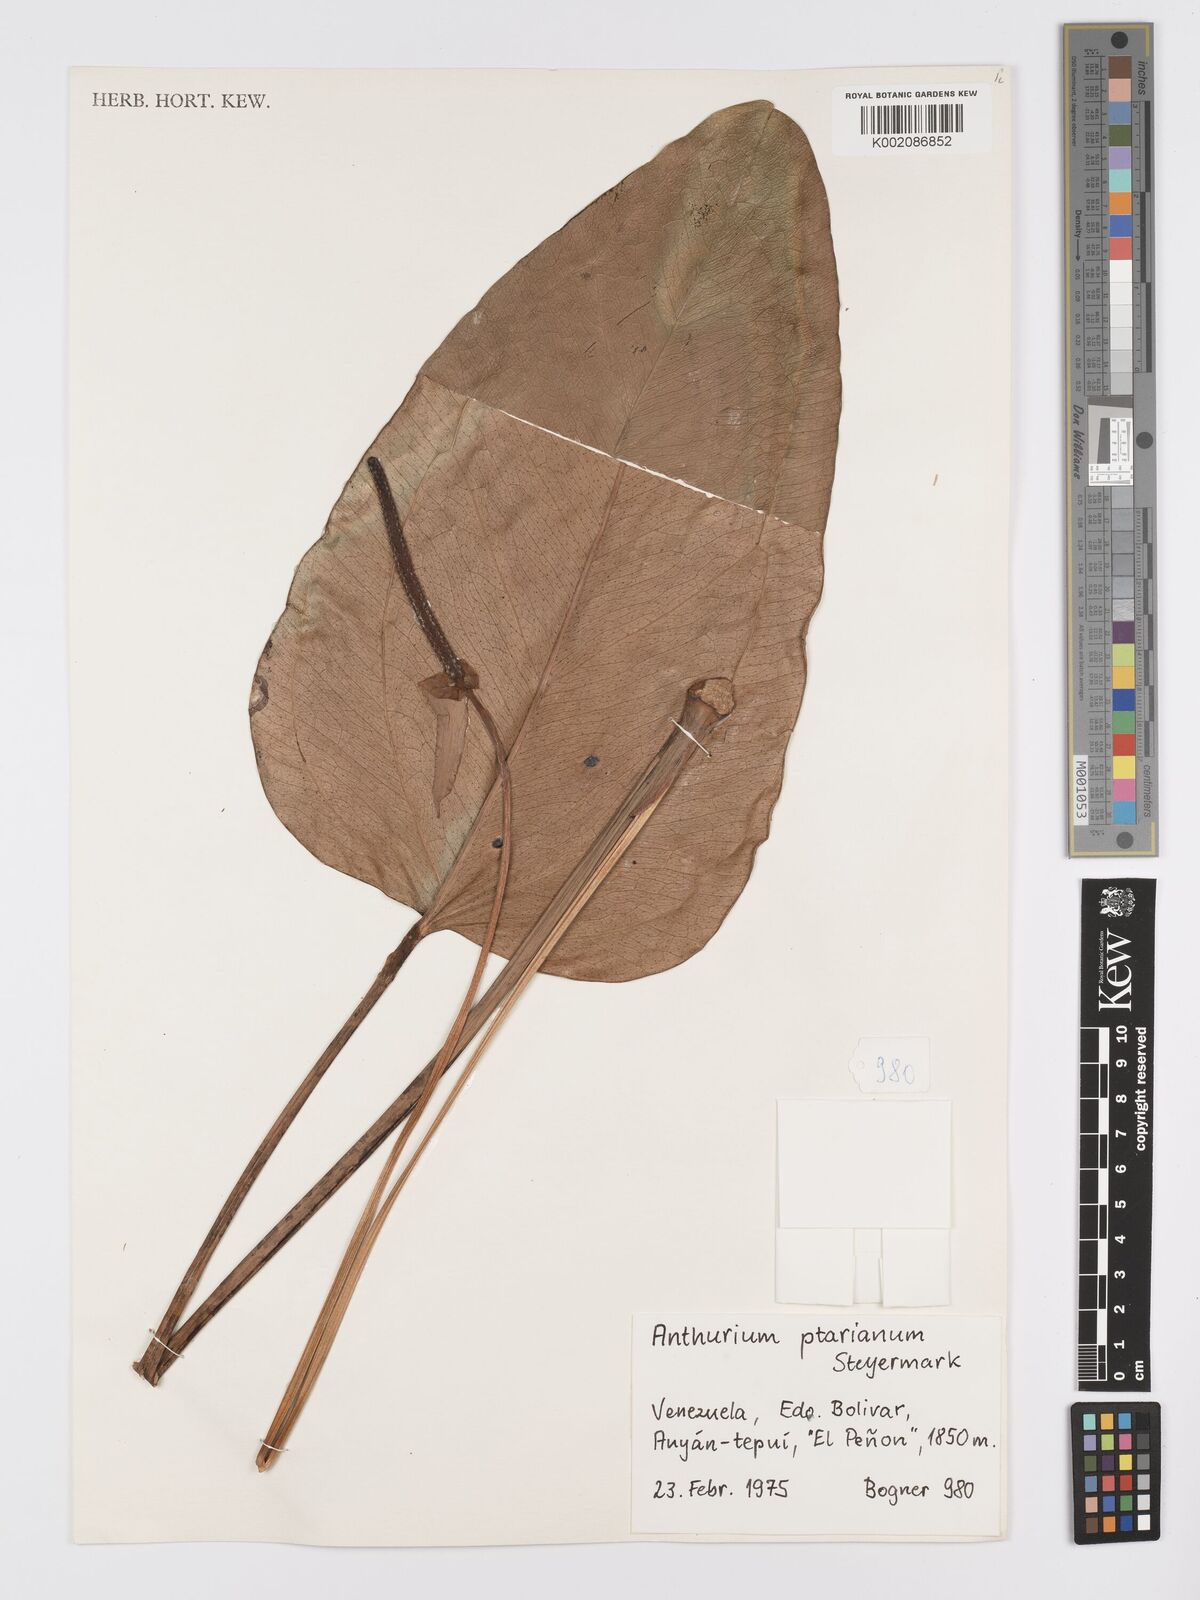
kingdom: Plantae
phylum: Tracheophyta
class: Liliopsida
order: Alismatales
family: Araceae
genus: Anthurium
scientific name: Anthurium ptarianum
